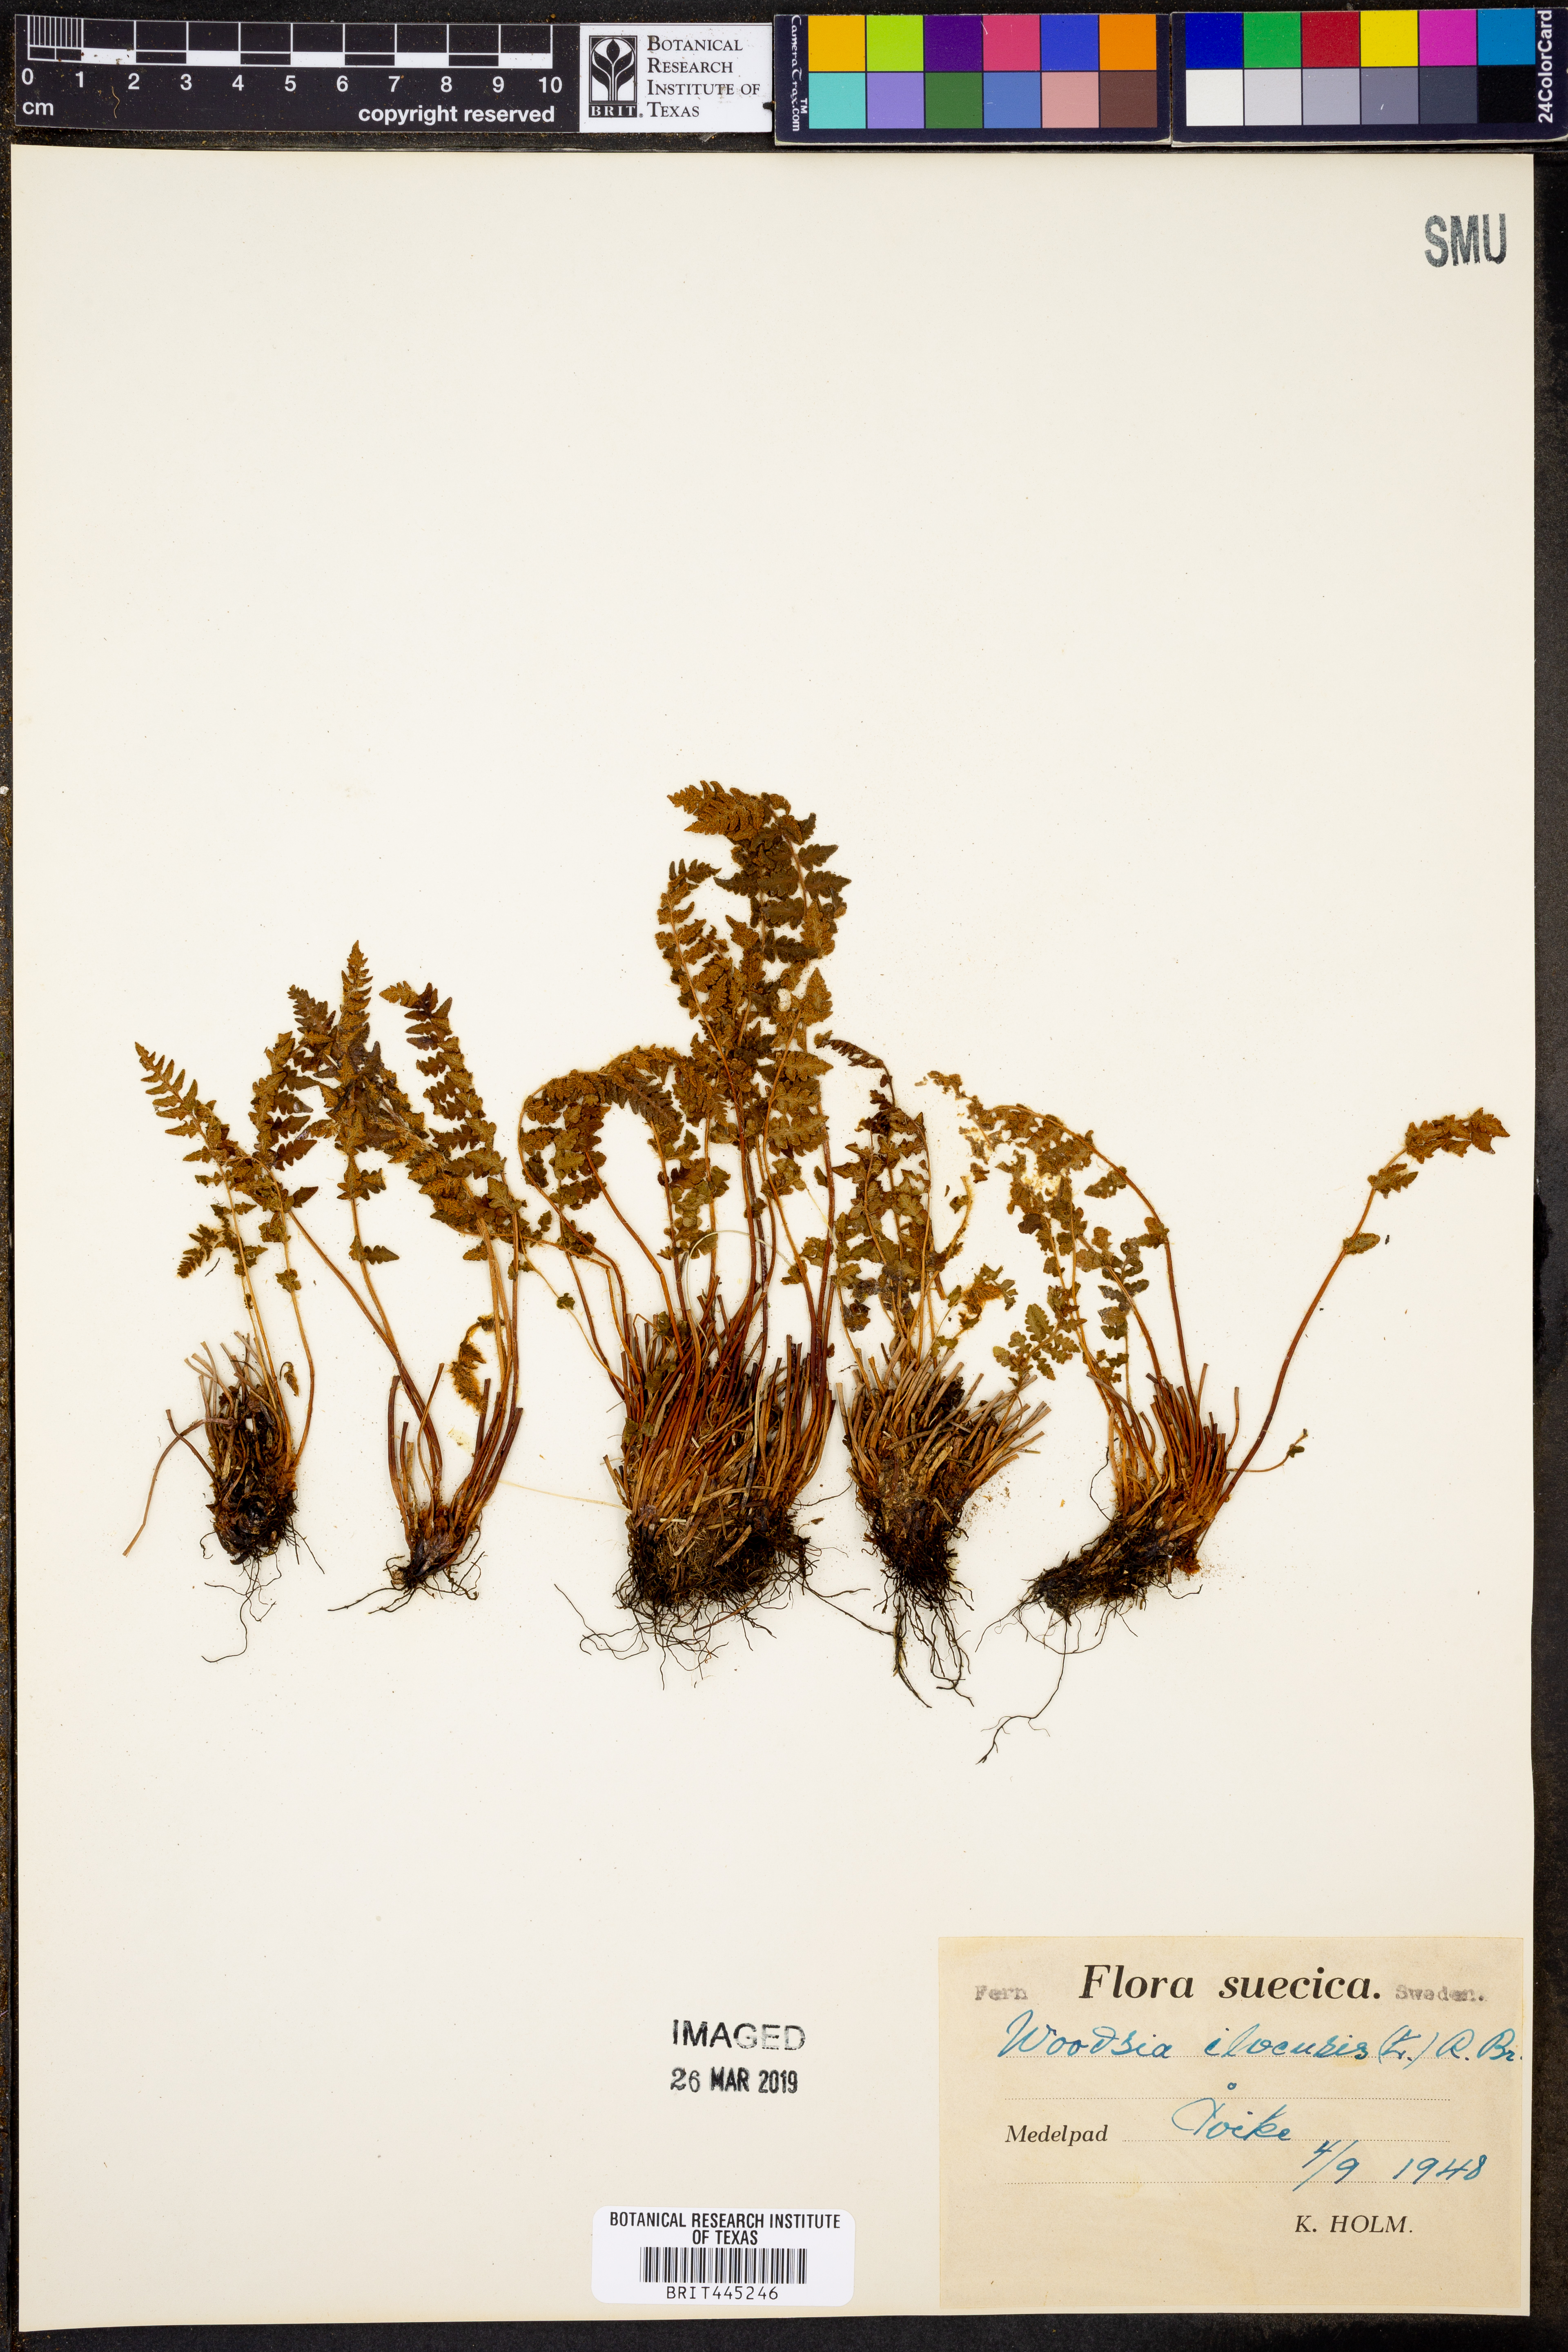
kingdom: Plantae
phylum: Tracheophyta
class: Polypodiopsida
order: Polypodiales
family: Woodsiaceae
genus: Woodsia
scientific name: Woodsia ilvensis
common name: Fragrant woodsia
